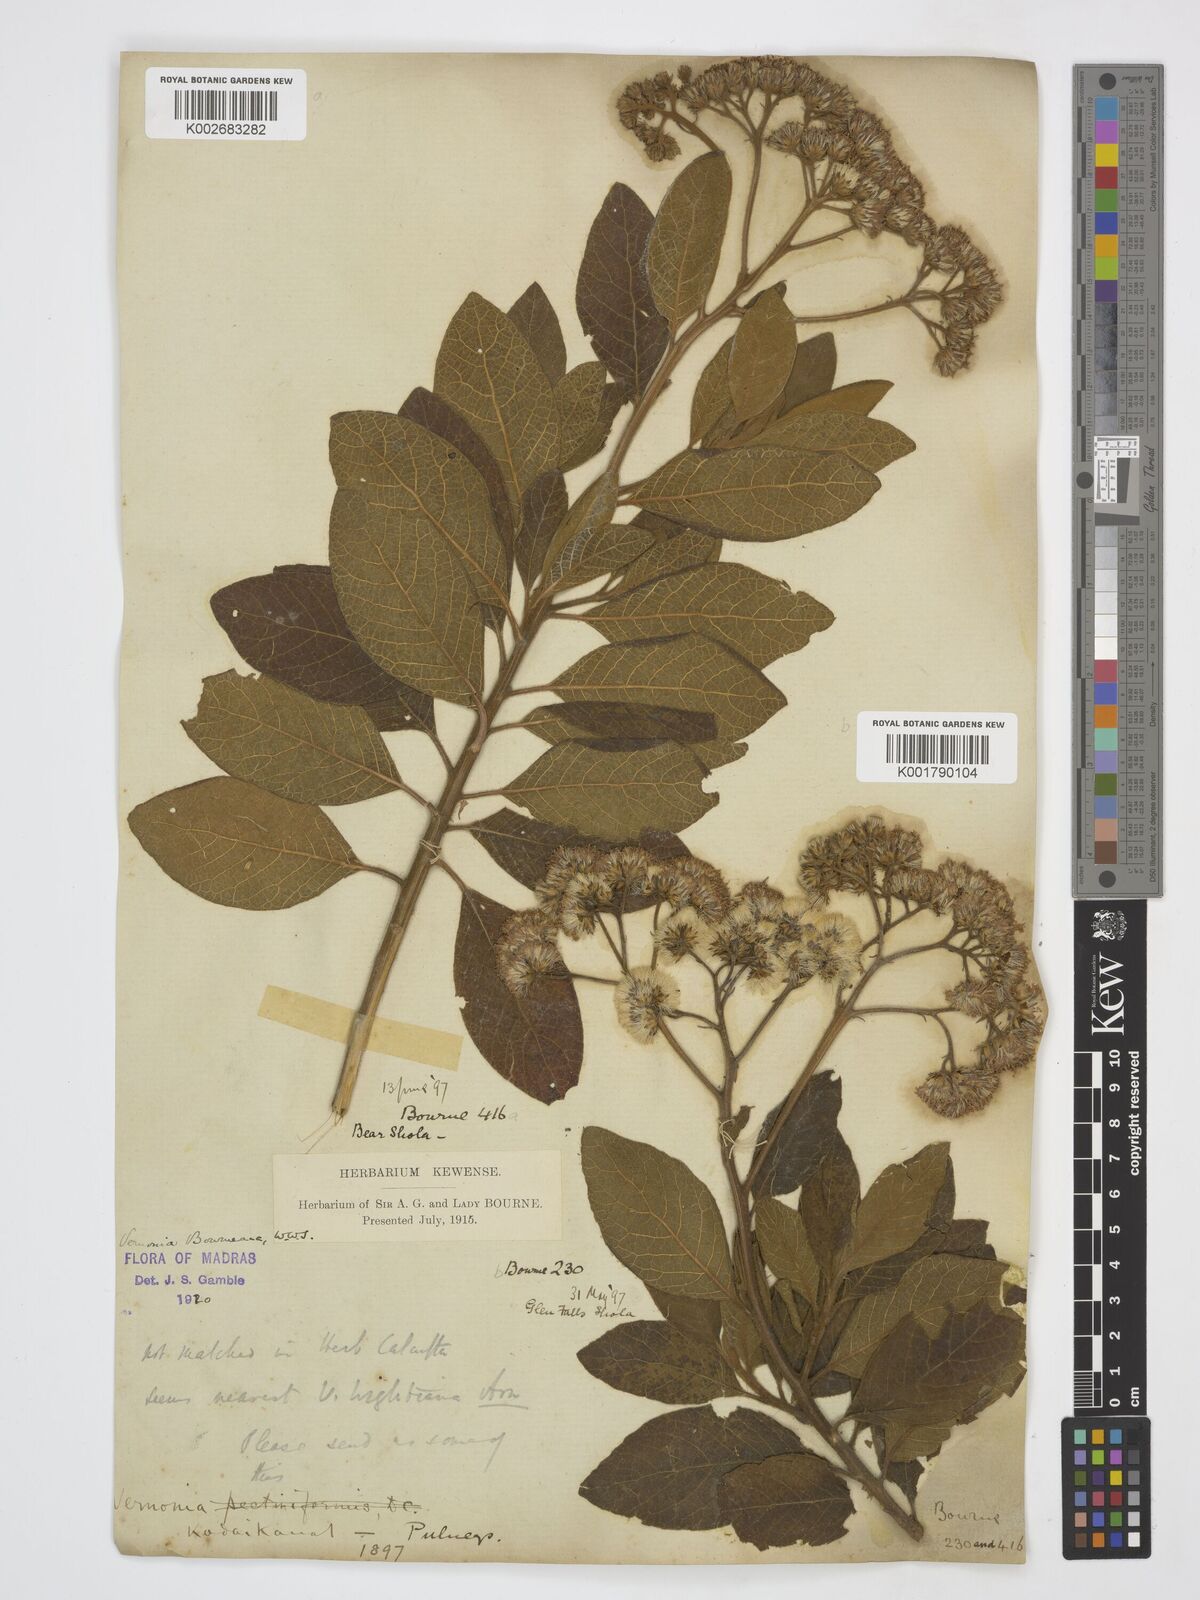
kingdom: Plantae
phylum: Tracheophyta
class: Magnoliopsida
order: Asterales
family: Asteraceae
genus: Uniyala
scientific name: Uniyala bourneana
